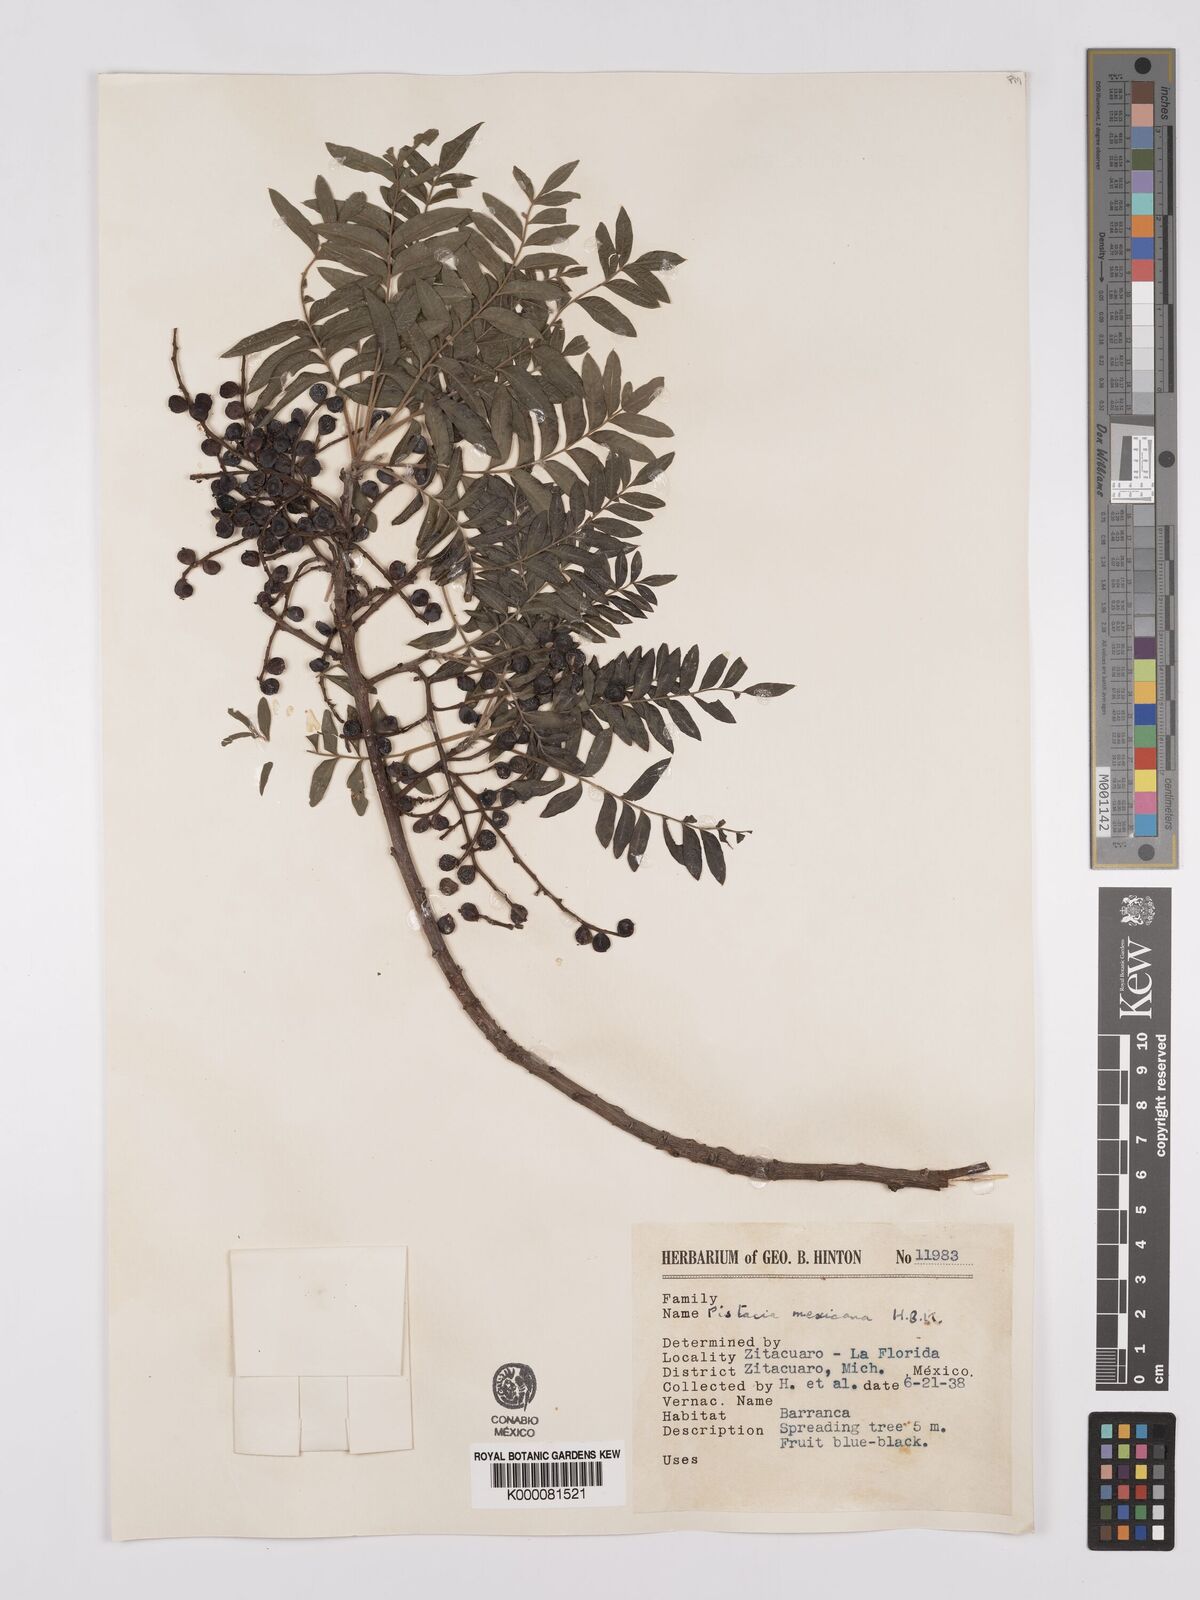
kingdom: Plantae
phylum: Tracheophyta
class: Magnoliopsida
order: Sapindales
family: Anacardiaceae
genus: Pistacia
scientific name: Pistacia mexicana
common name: Mexican pistachio
